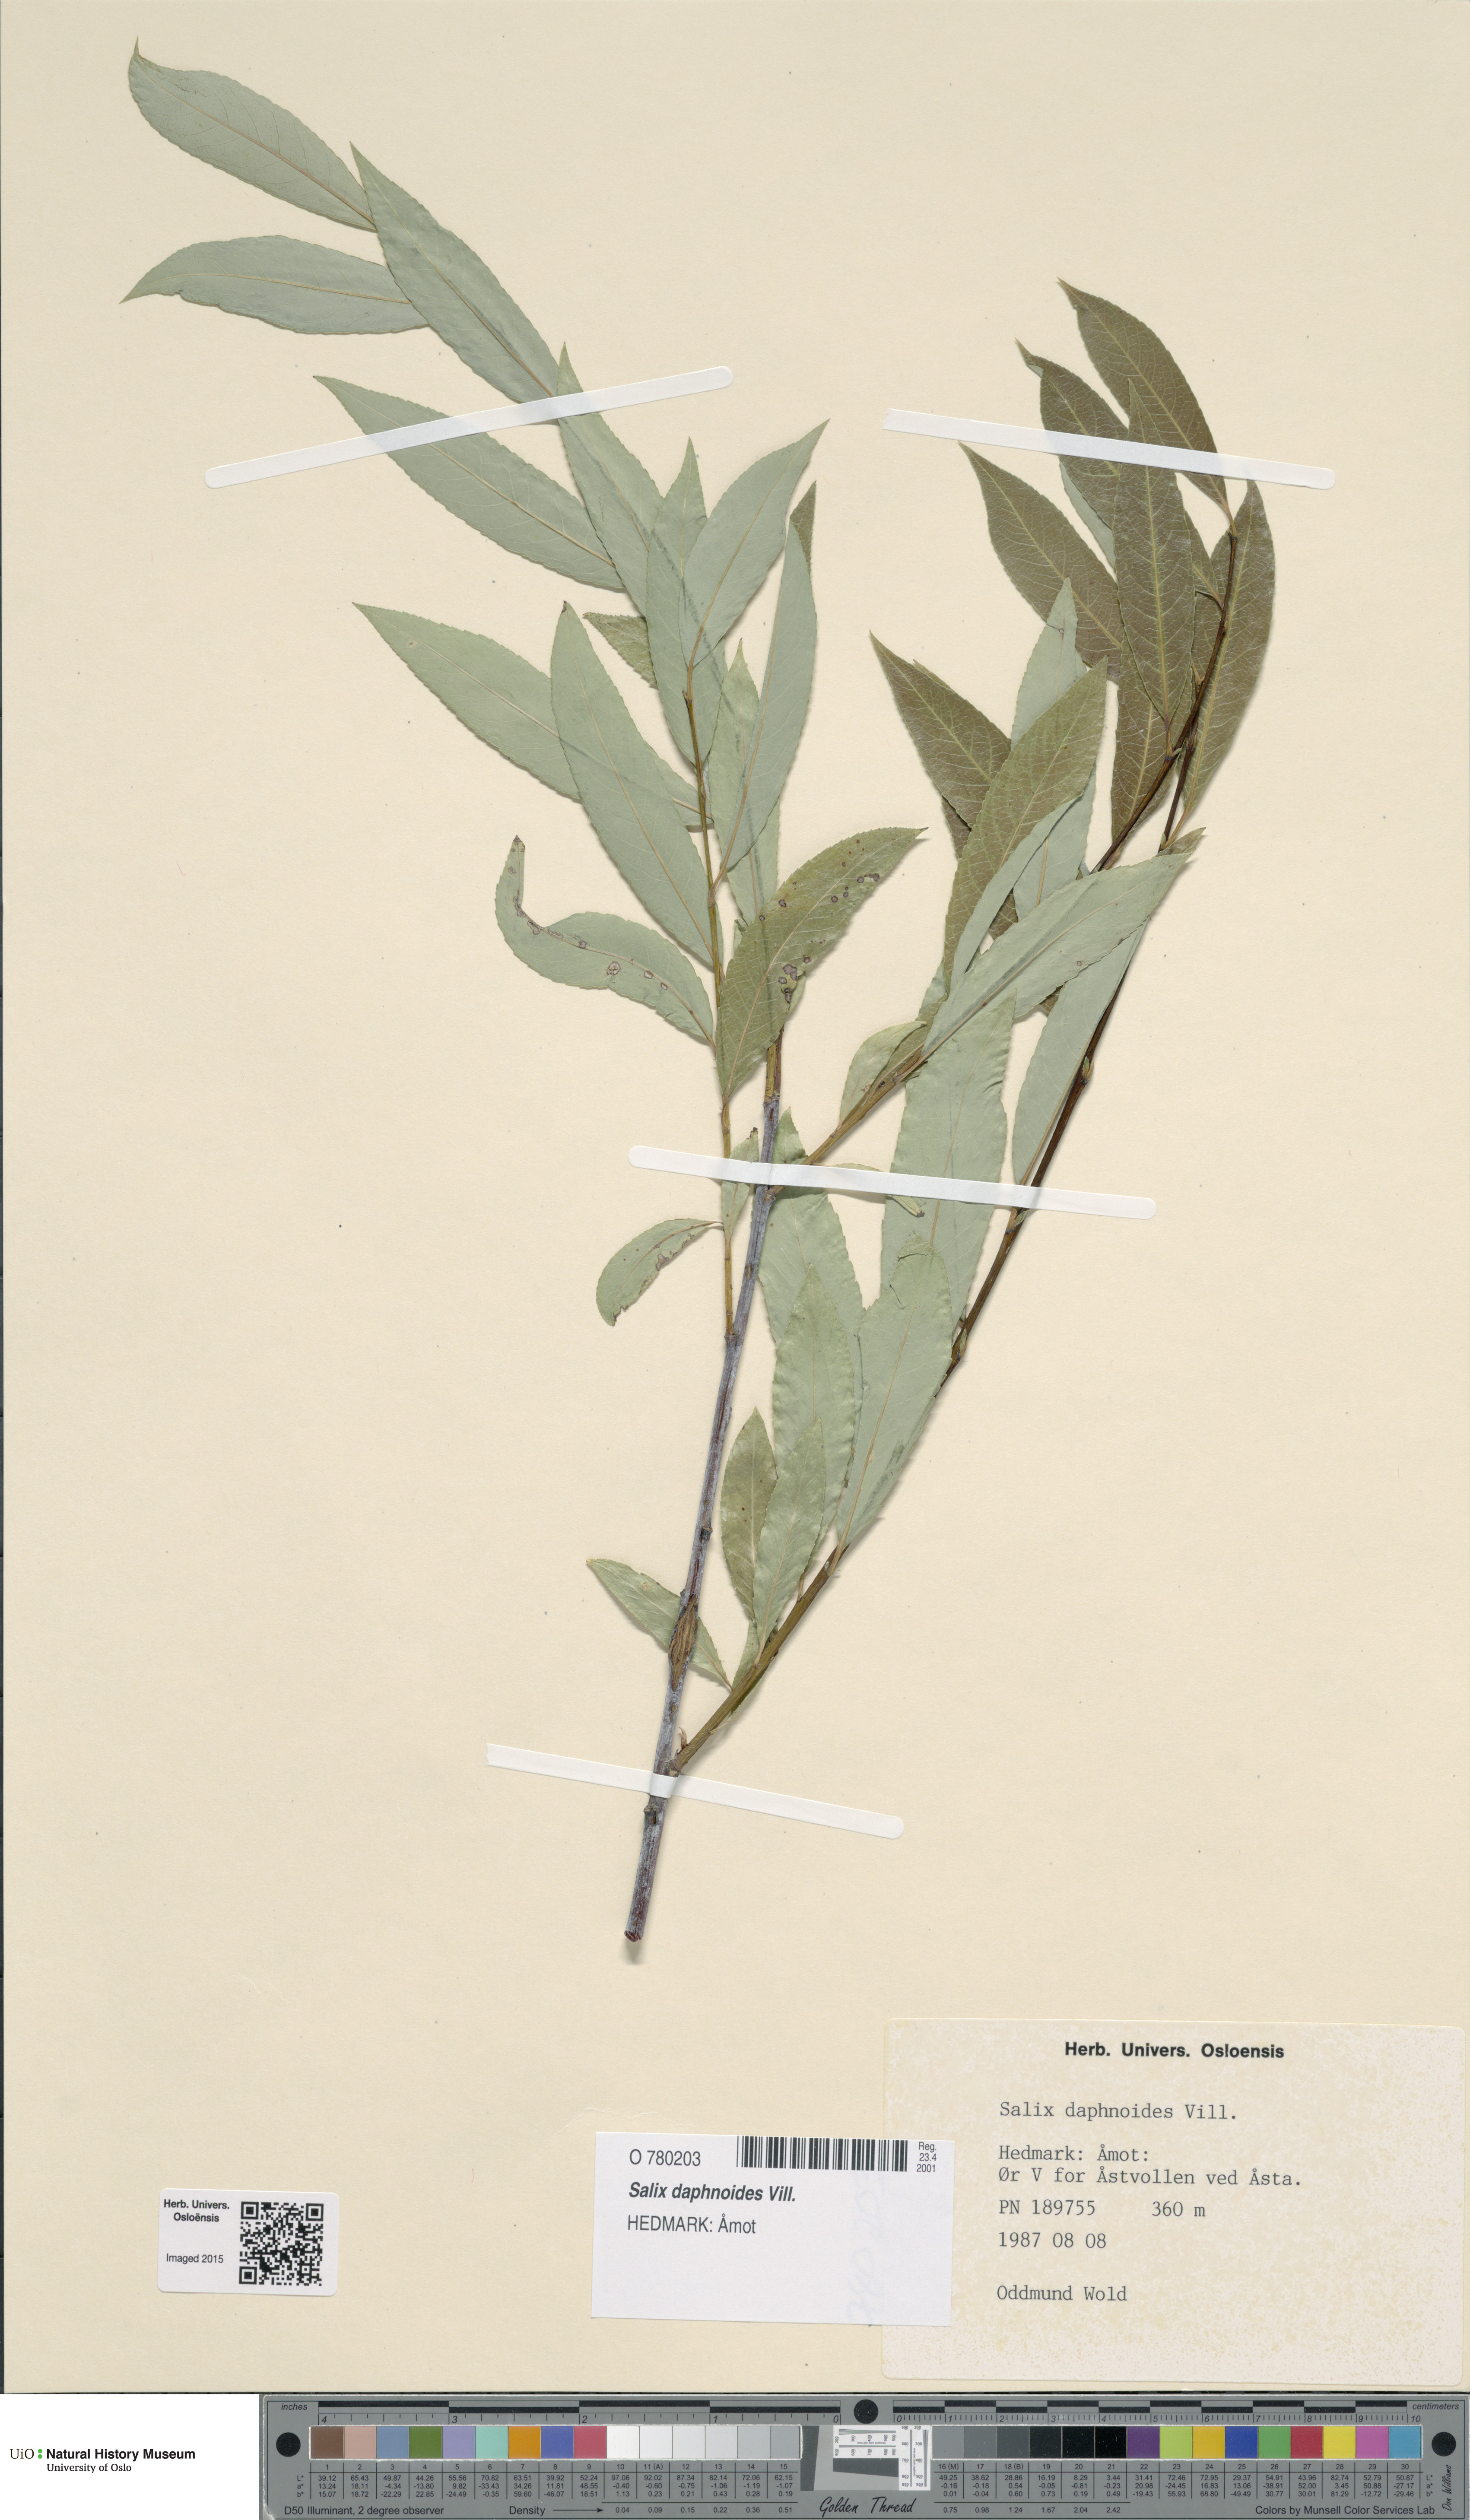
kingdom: Plantae
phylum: Tracheophyta
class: Magnoliopsida
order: Malpighiales
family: Salicaceae
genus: Salix
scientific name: Salix daphnoides
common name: European violet-willow
